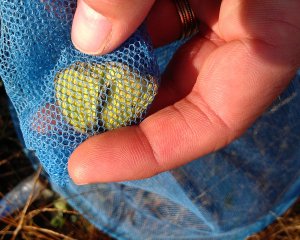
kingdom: Animalia
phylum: Arthropoda
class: Insecta
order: Lepidoptera
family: Pieridae
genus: Colias
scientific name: Colias philodice
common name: Clouded Sulphur
